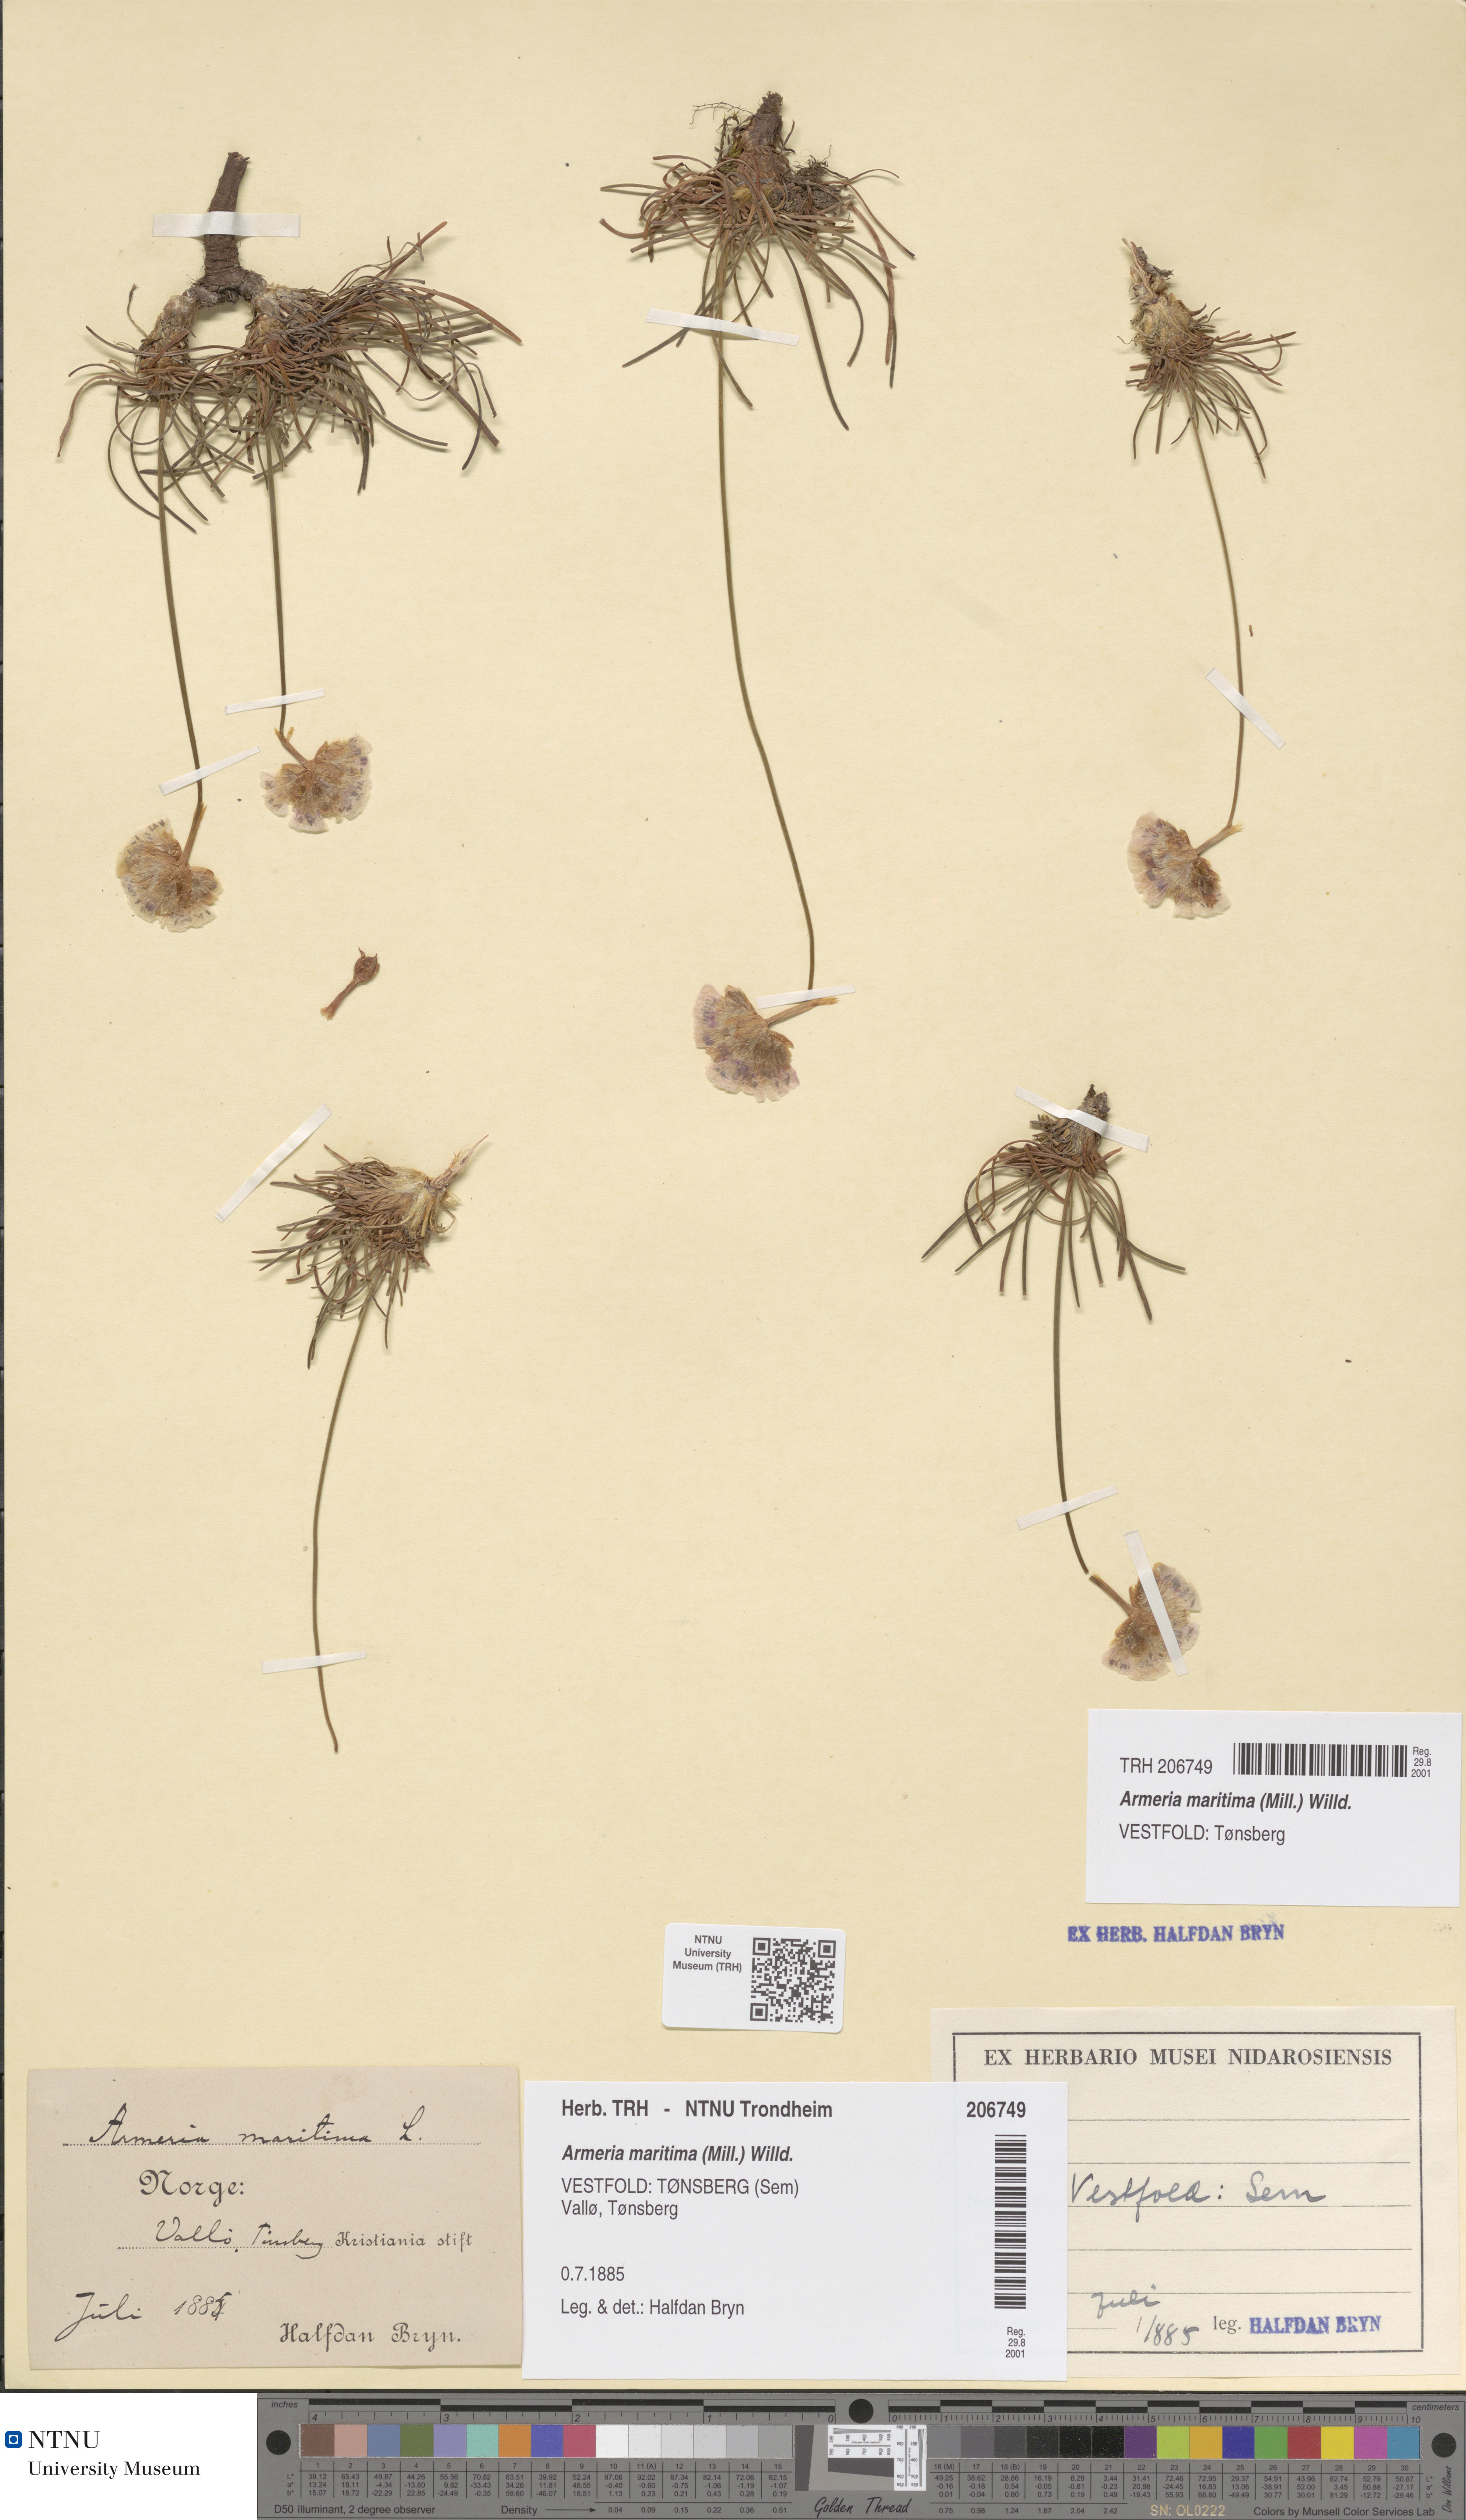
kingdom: Plantae
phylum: Tracheophyta
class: Magnoliopsida
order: Caryophyllales
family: Plumbaginaceae
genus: Armeria
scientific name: Armeria maritima
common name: Thrift
